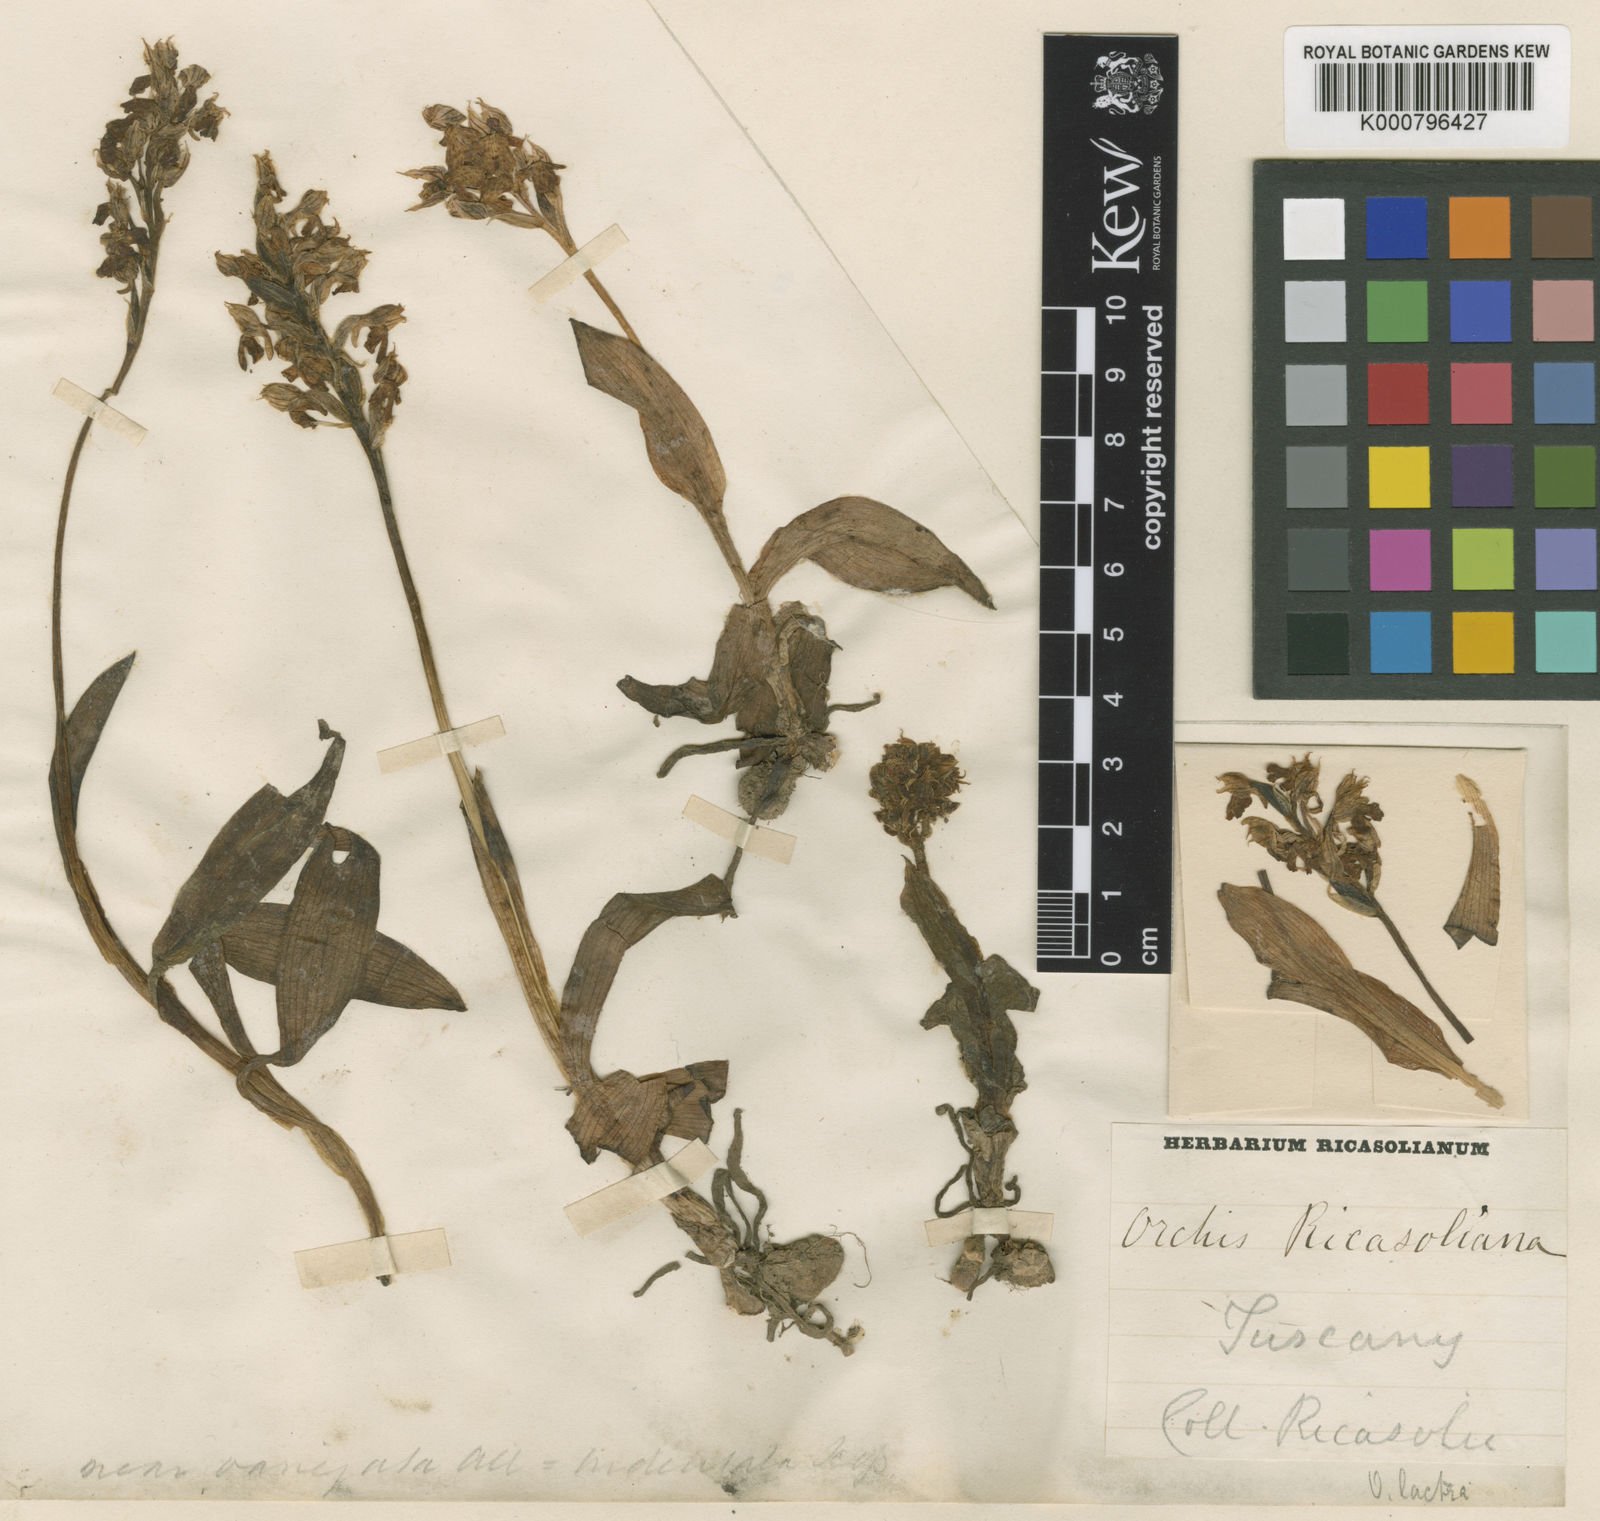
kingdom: Plantae
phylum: Tracheophyta
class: Liliopsida
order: Asparagales
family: Orchidaceae
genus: Neotinea
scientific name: Neotinea lactea
